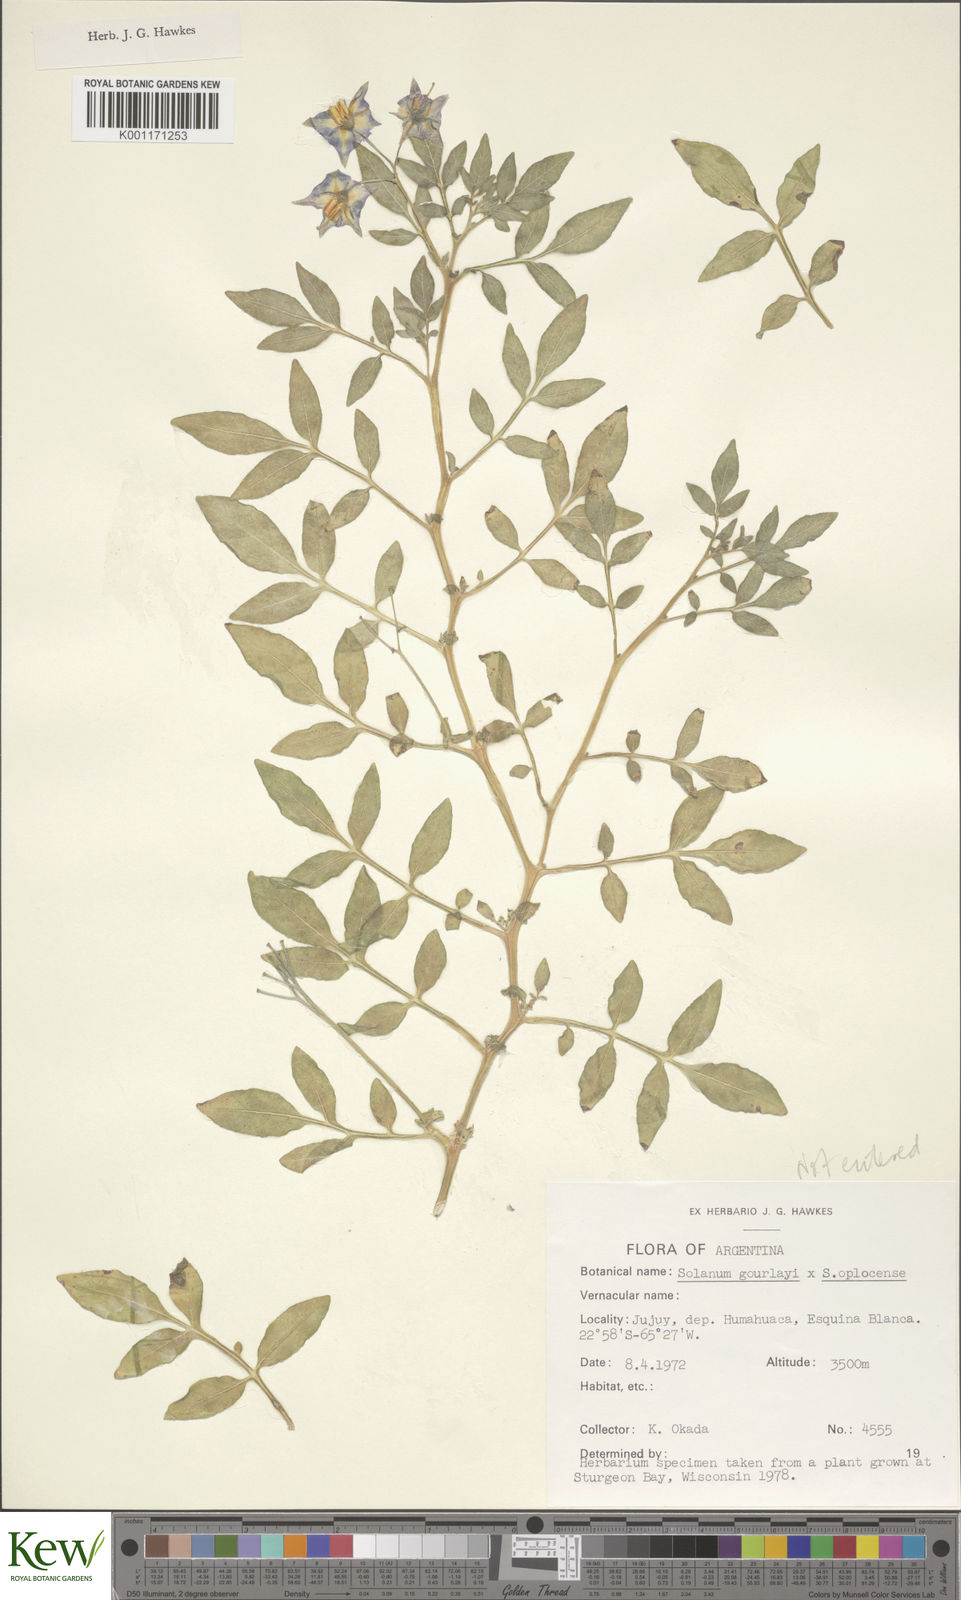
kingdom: Plantae
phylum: Tracheophyta
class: Magnoliopsida
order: Solanales
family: Solanaceae
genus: Solanum
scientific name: Solanum brevicaule
